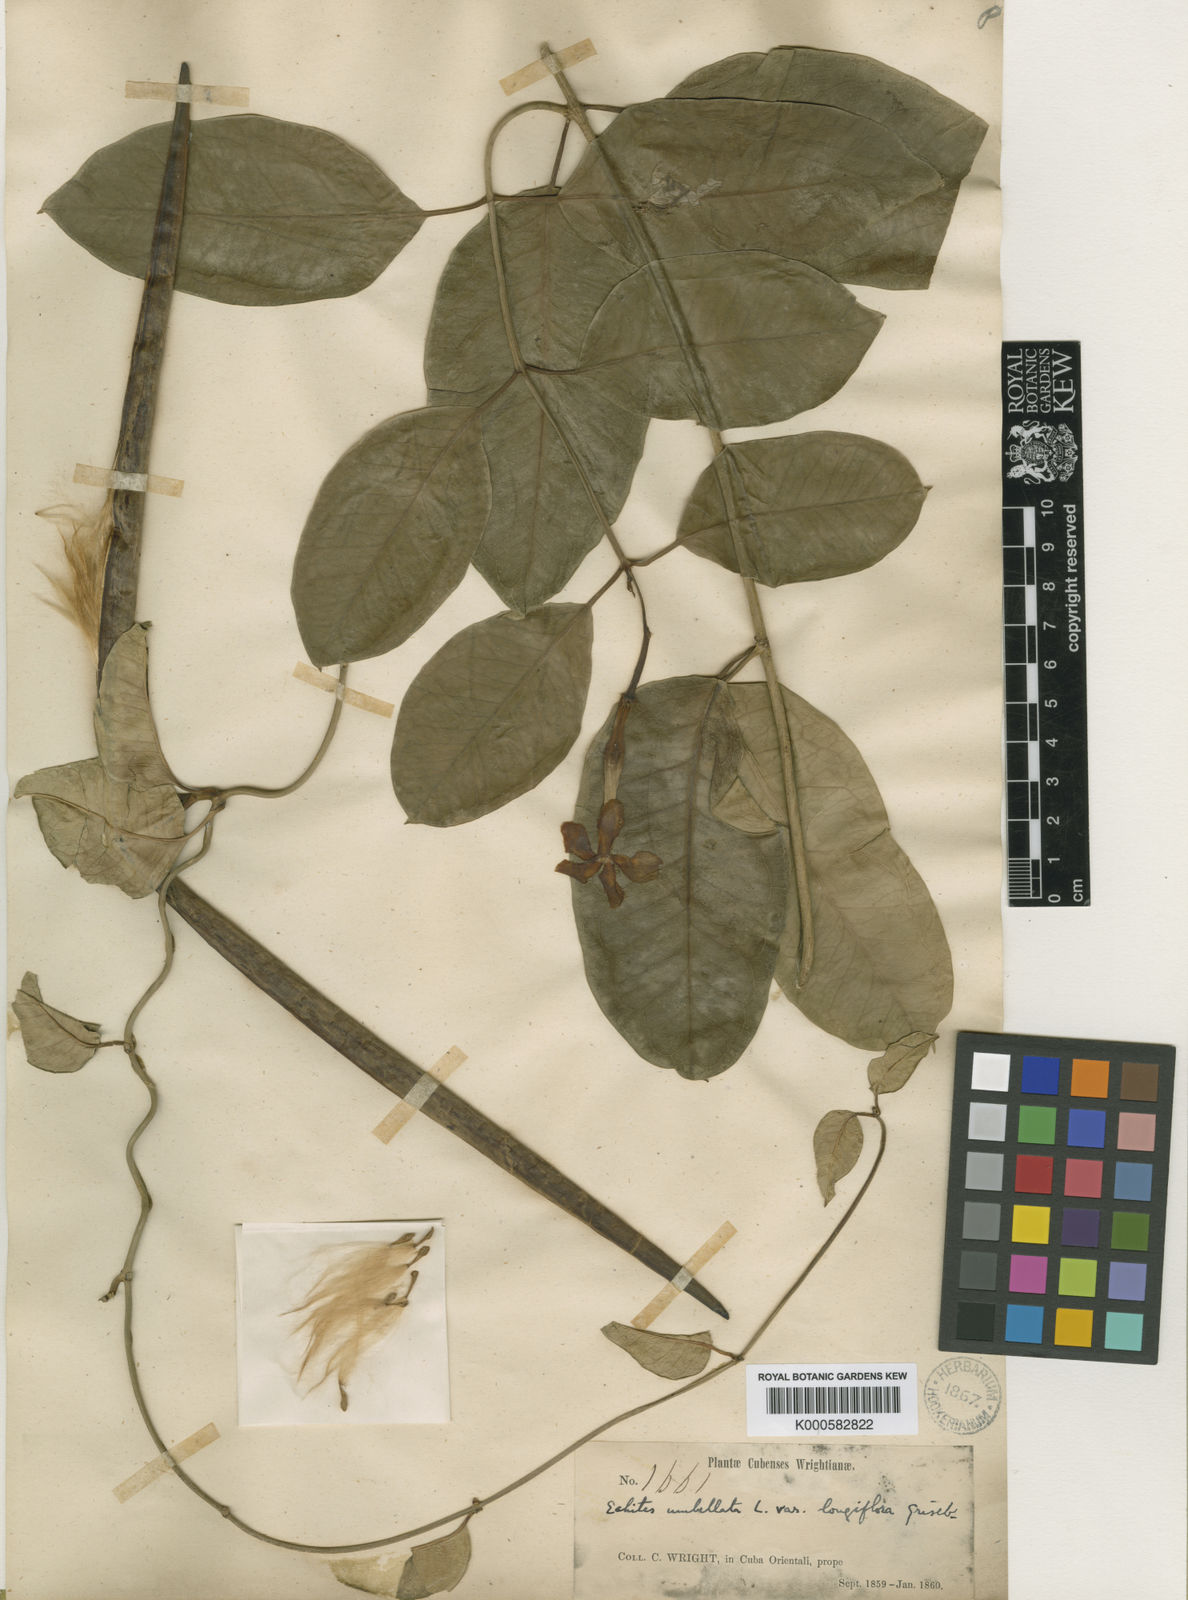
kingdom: Plantae
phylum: Tracheophyta
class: Magnoliopsida
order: Gentianales
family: Apocynaceae
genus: Echites
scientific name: Echites
